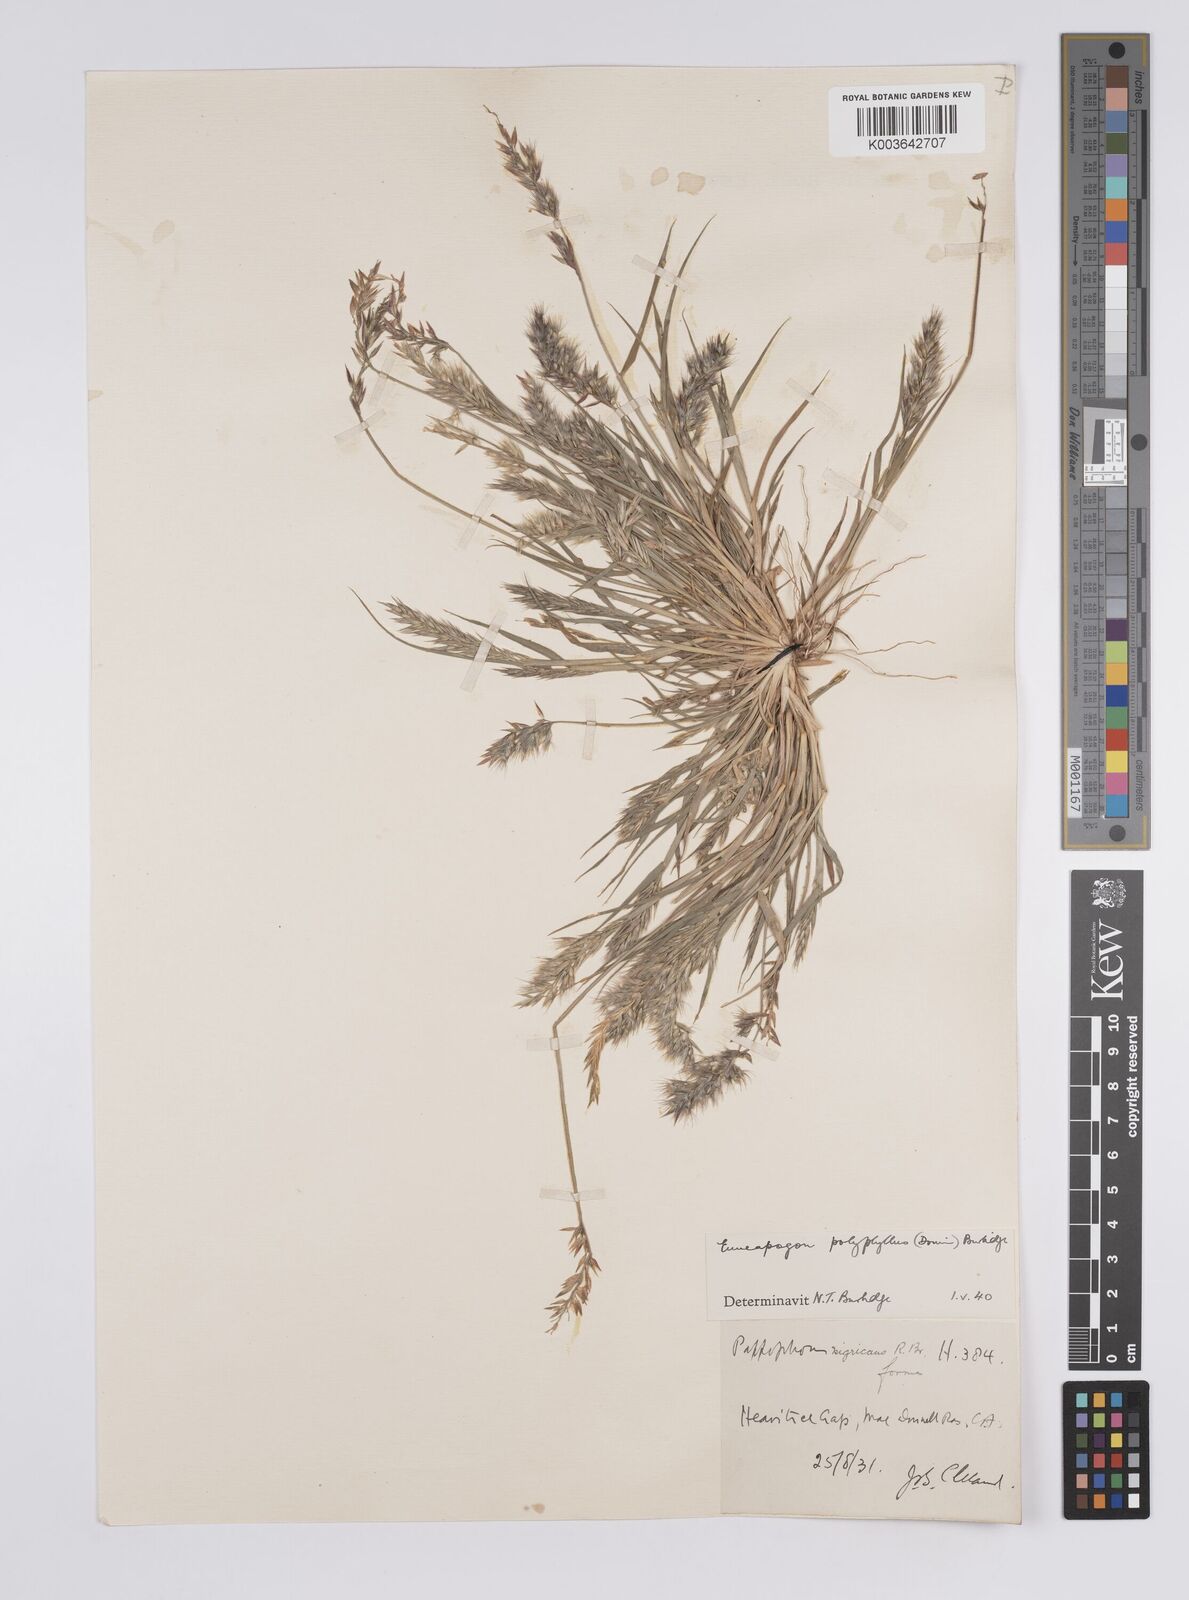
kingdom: Plantae
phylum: Tracheophyta
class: Liliopsida
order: Poales
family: Poaceae
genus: Enneapogon
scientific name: Enneapogon polyphyllus
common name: Leafy nineawn
